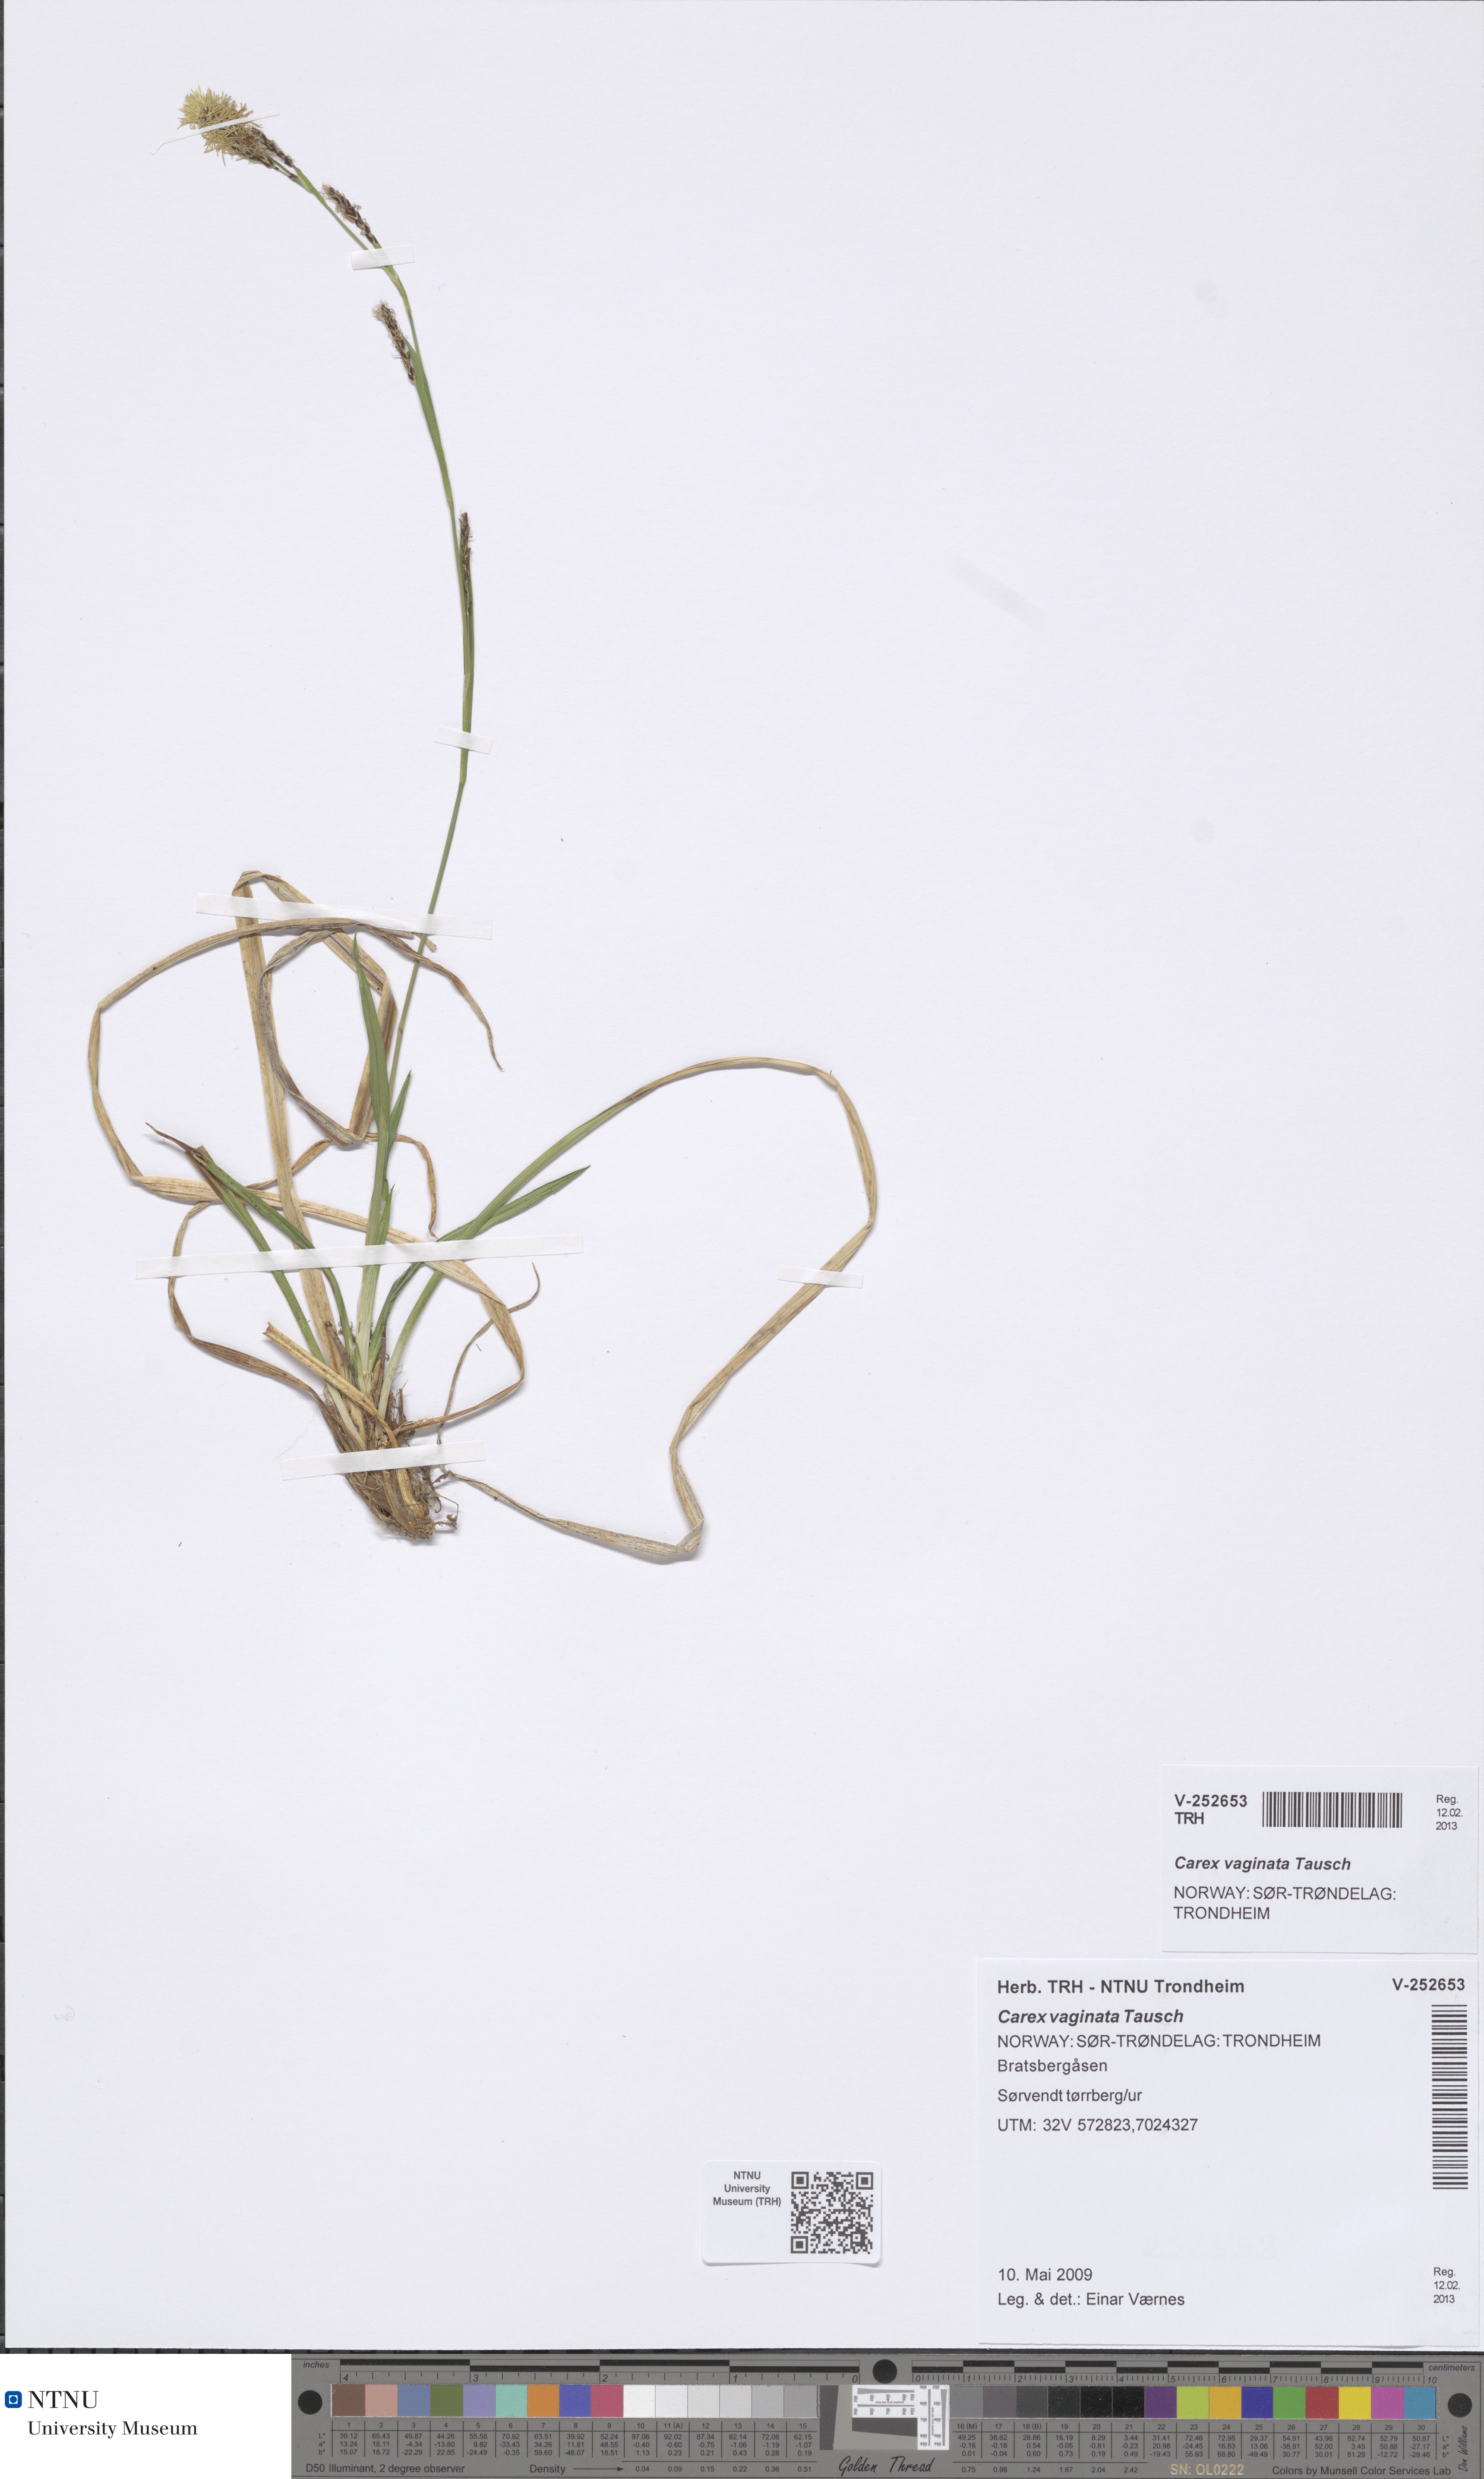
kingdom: Plantae
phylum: Tracheophyta
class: Liliopsida
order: Poales
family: Cyperaceae
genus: Carex
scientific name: Carex vaginata
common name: Sheathed sedge
